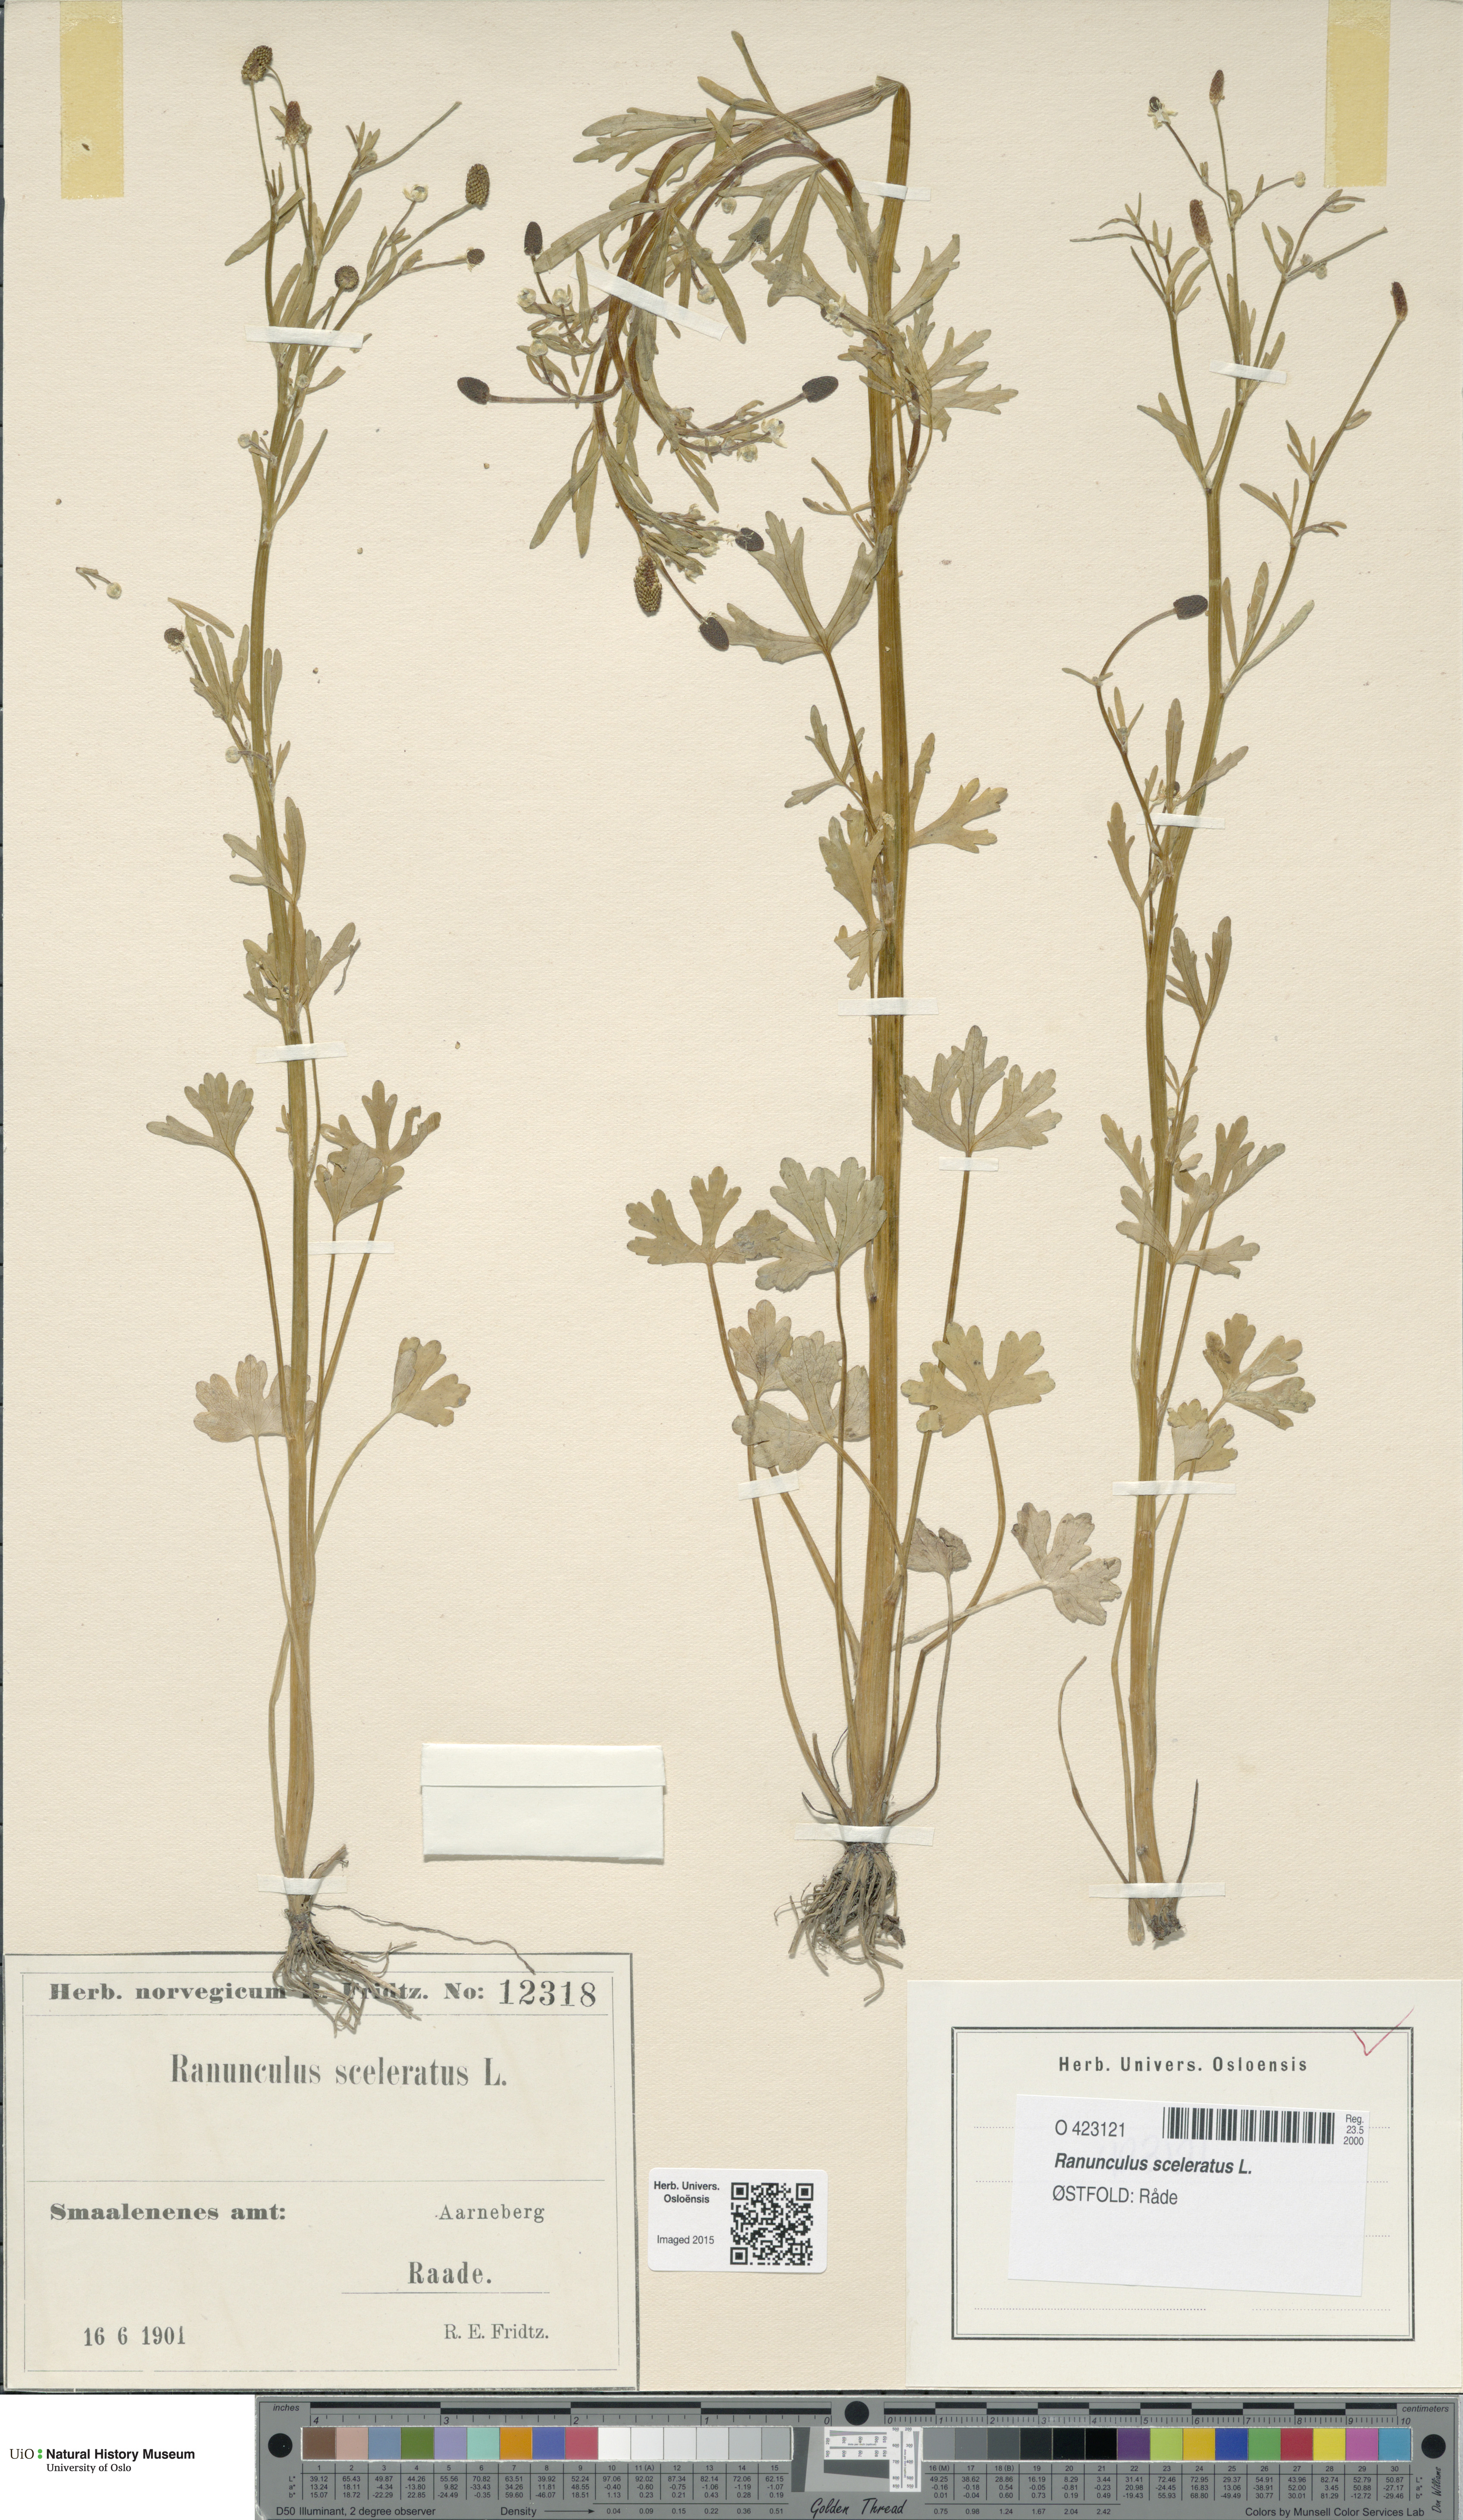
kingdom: Plantae
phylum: Tracheophyta
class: Magnoliopsida
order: Ranunculales
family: Ranunculaceae
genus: Ranunculus
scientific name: Ranunculus sceleratus
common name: Celery-leaved buttercup
